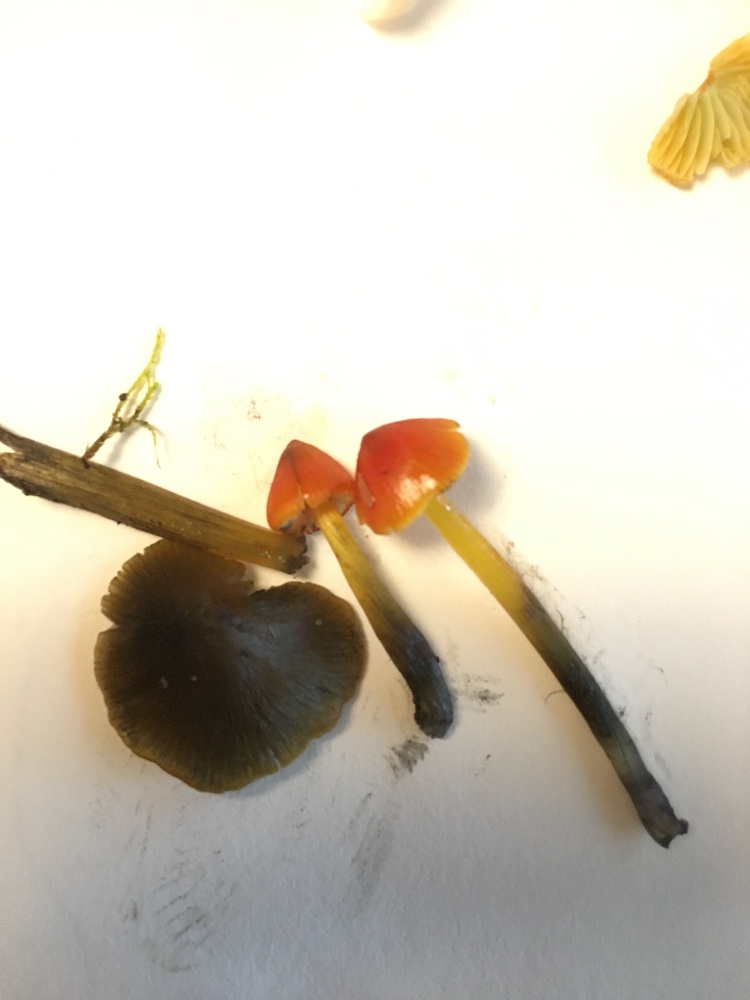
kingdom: Fungi
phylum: Basidiomycota
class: Agaricomycetes
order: Agaricales
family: Hygrophoraceae
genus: Hygrocybe
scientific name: Hygrocybe conica
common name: kegle-vokshat
